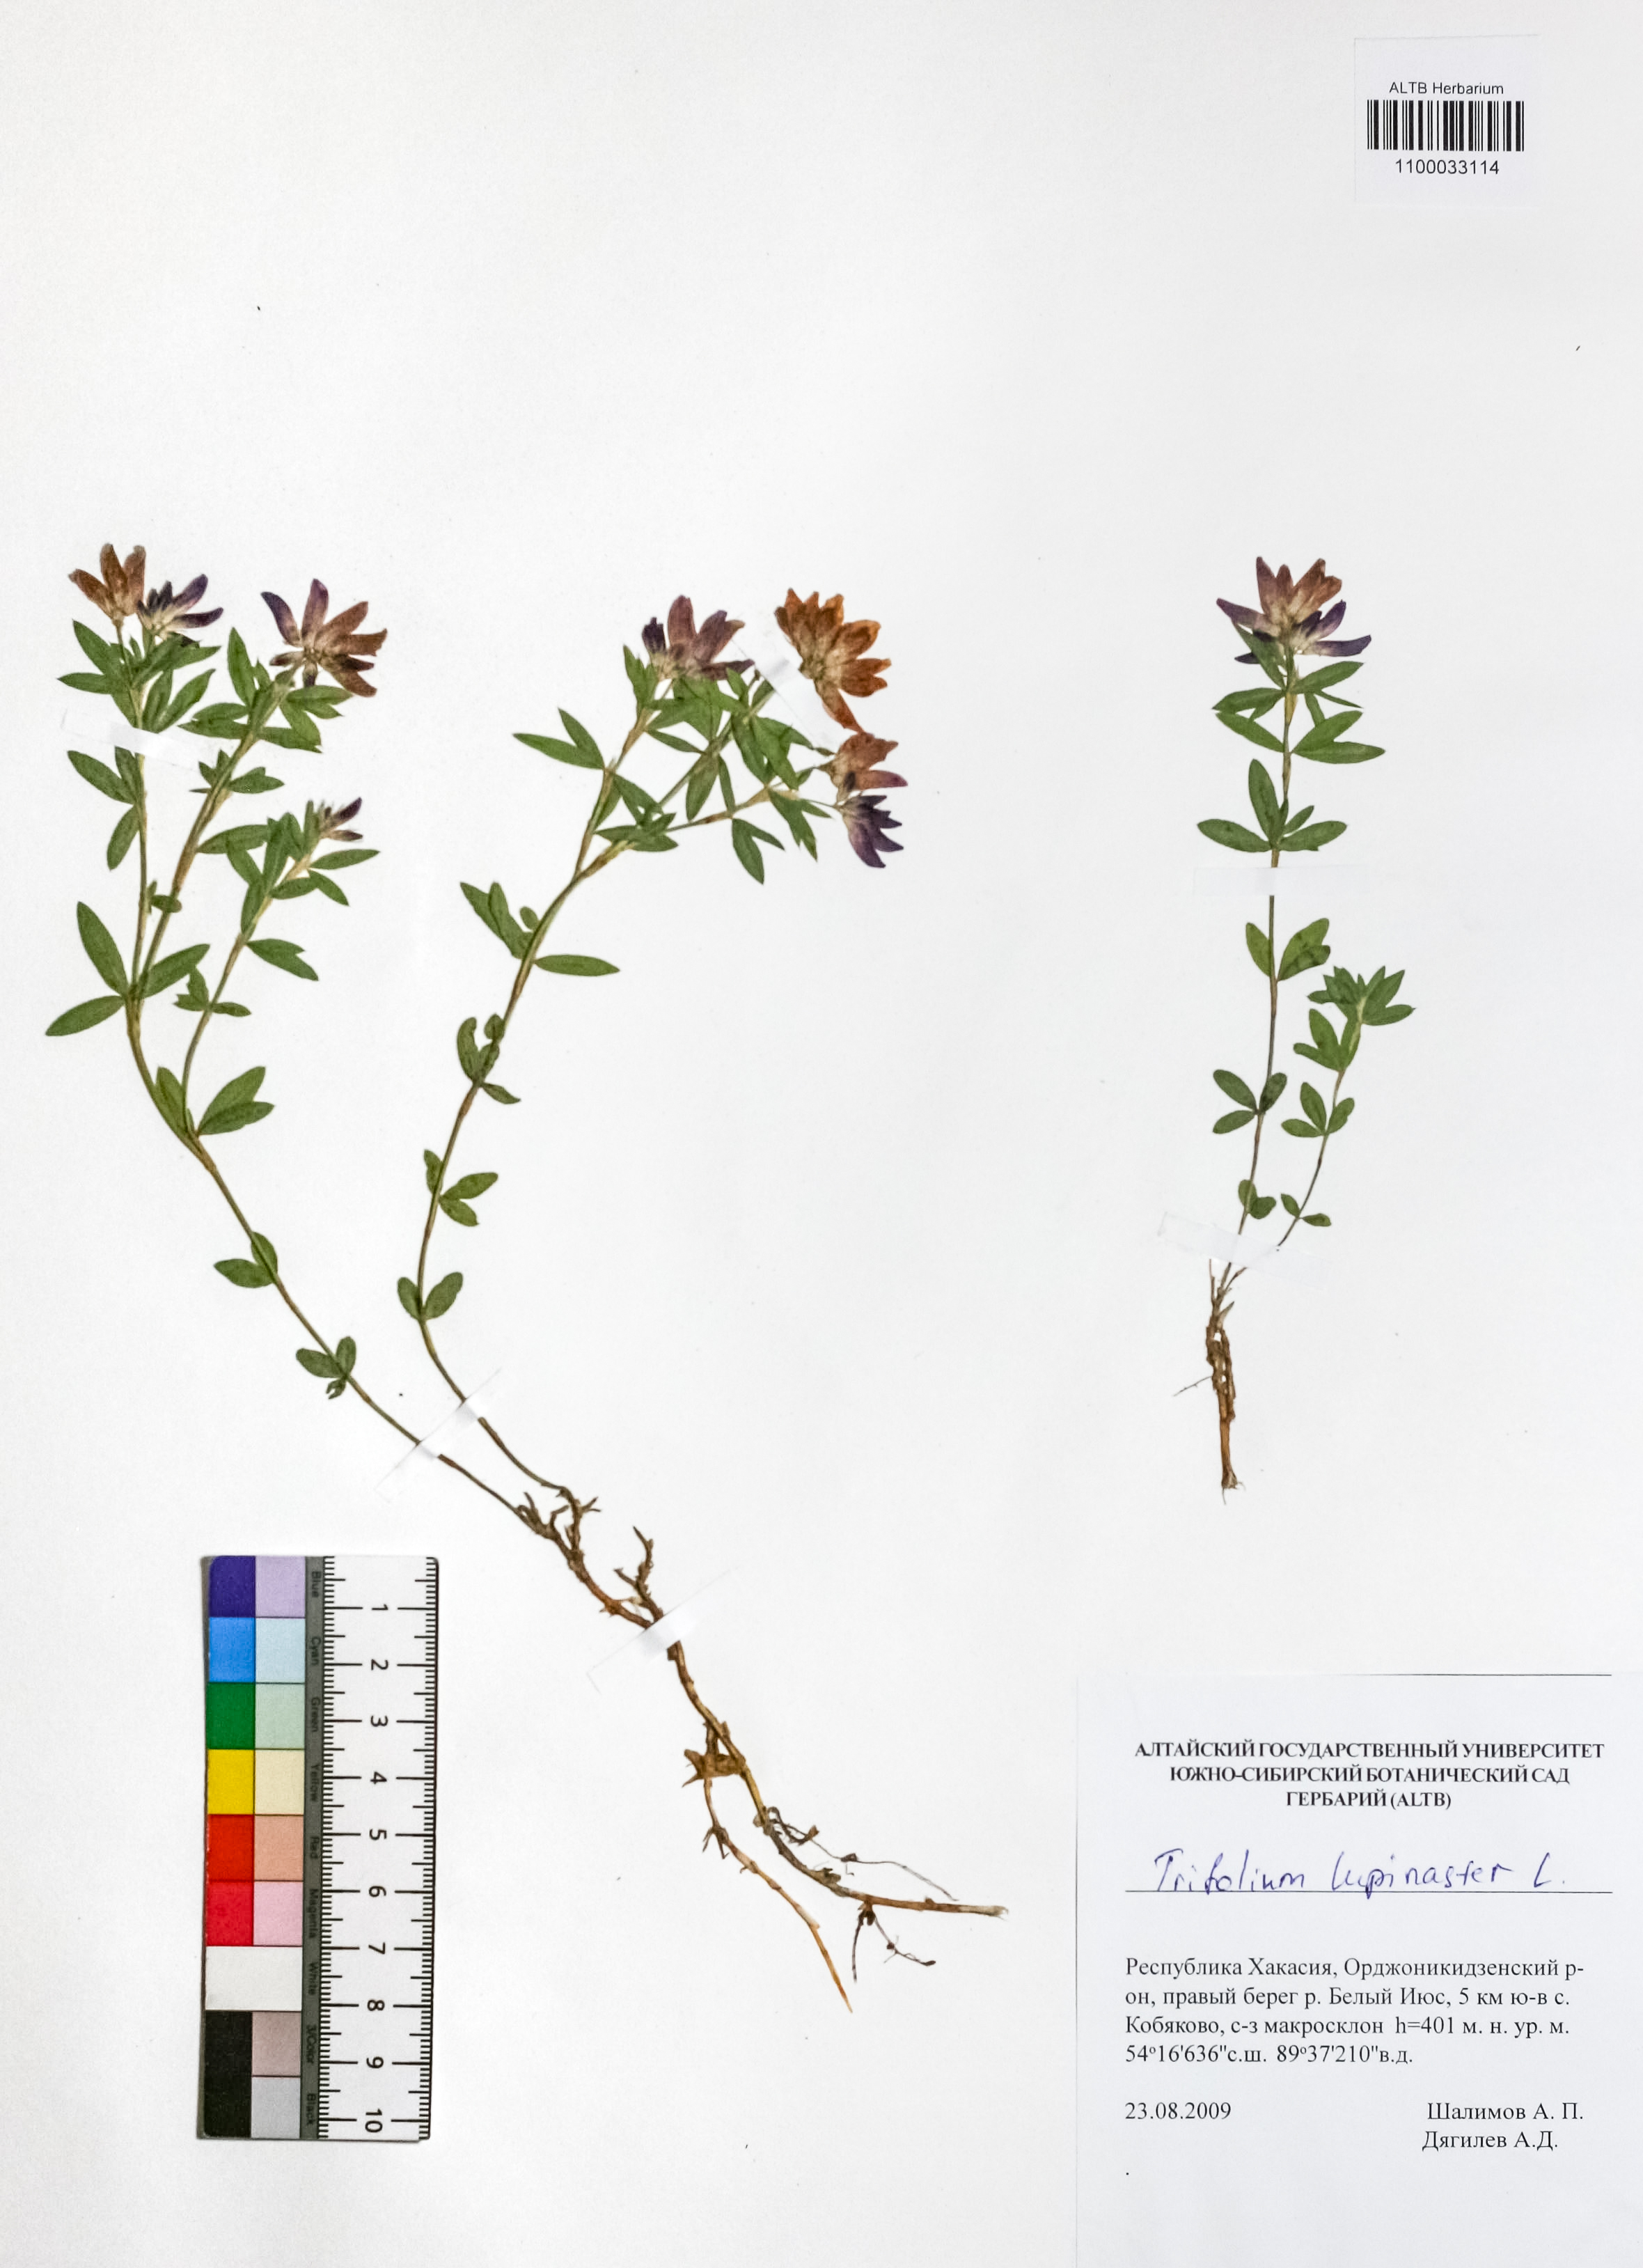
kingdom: Plantae
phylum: Tracheophyta
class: Magnoliopsida
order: Fabales
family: Fabaceae
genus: Trifolium
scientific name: Trifolium lupinaster
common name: Lupine clover
